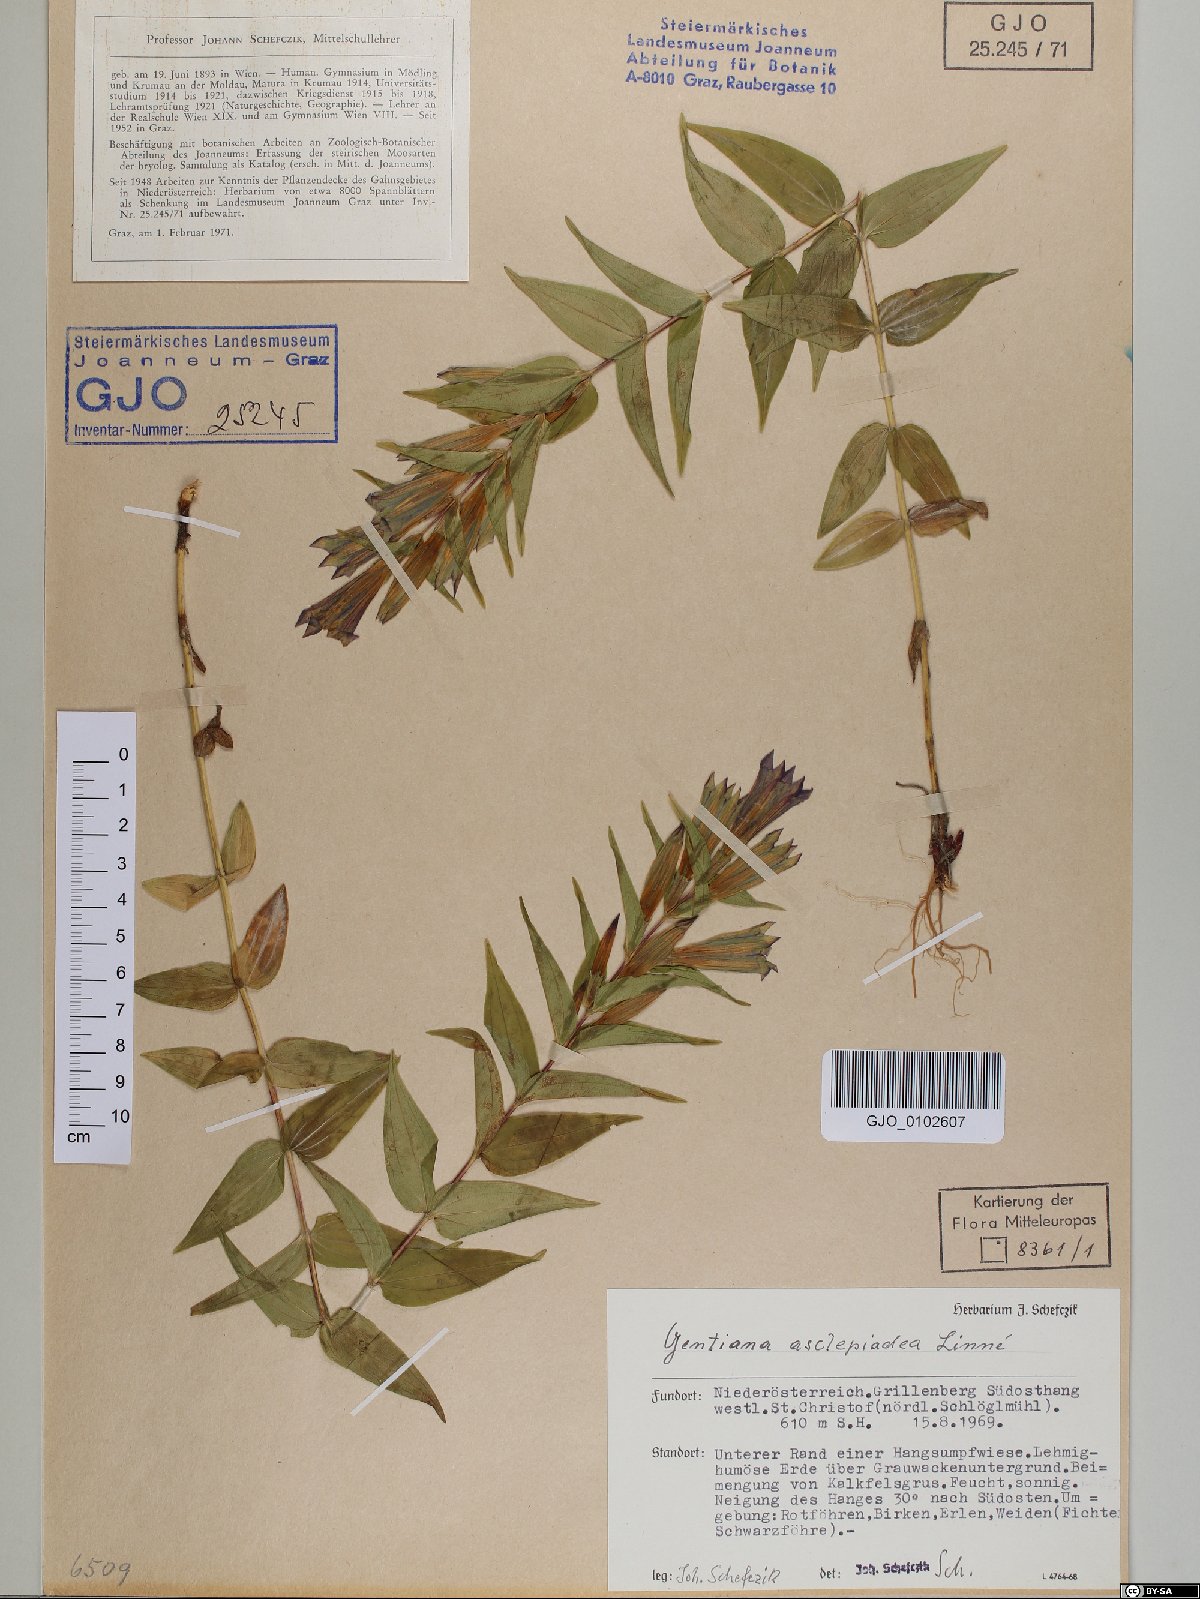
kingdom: Plantae
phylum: Tracheophyta
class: Magnoliopsida
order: Gentianales
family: Gentianaceae
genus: Gentiana
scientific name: Gentiana asclepiadea
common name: Willow gentian
